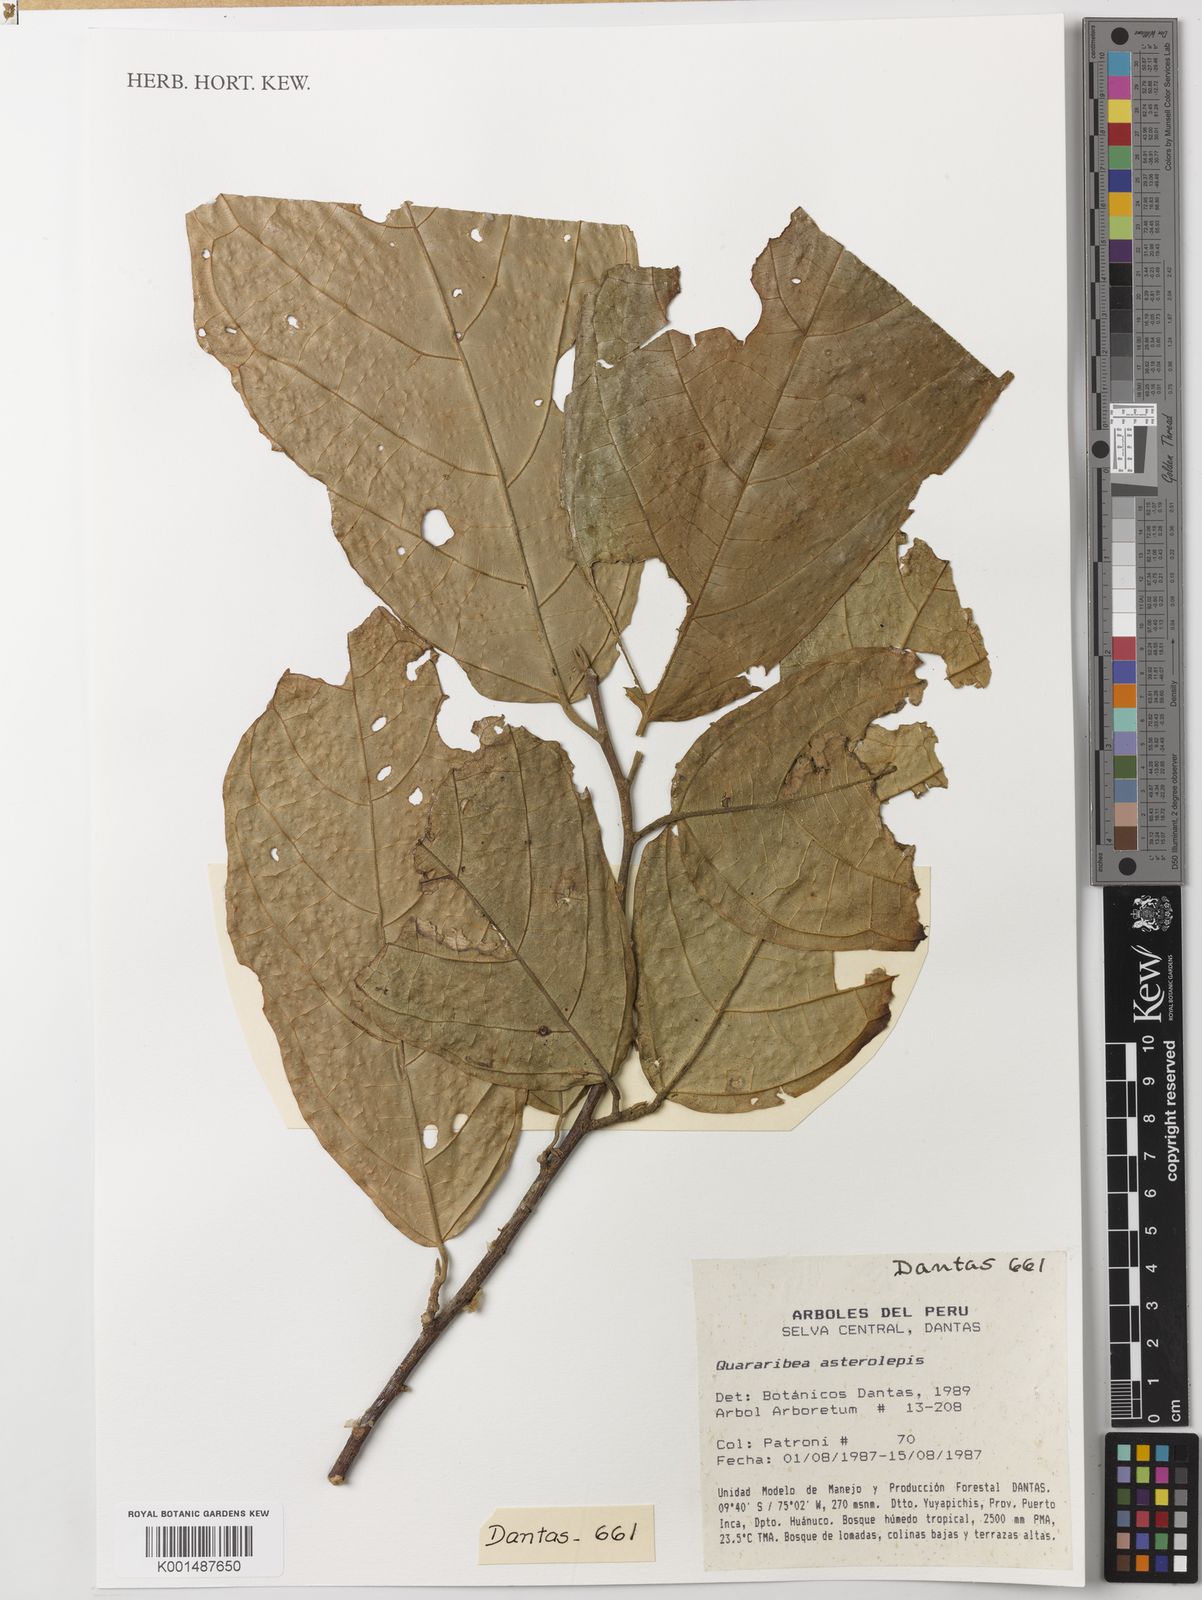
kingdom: Plantae
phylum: Tracheophyta
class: Magnoliopsida
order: Malvales
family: Malvaceae
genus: Quararibea
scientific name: Quararibea asterolepis
